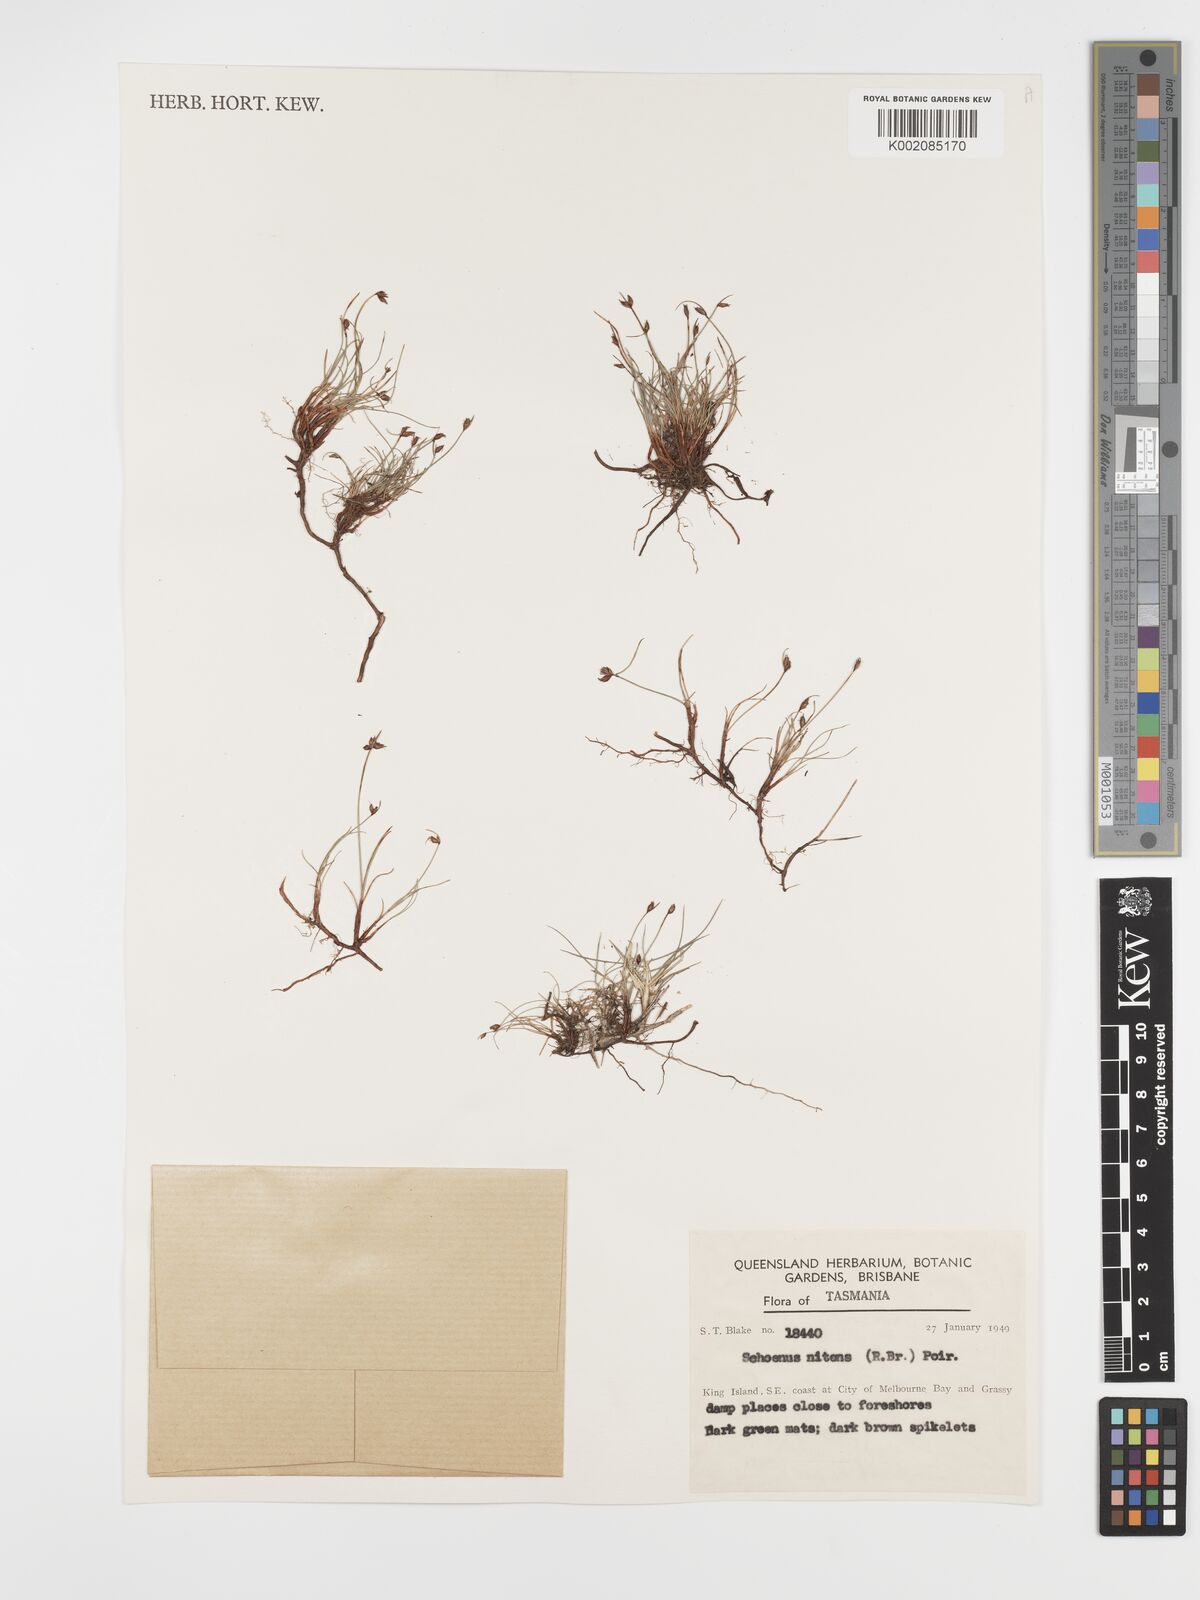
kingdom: Plantae
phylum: Tracheophyta
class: Liliopsida
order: Poales
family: Cyperaceae
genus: Schoenus
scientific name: Schoenus nitens
